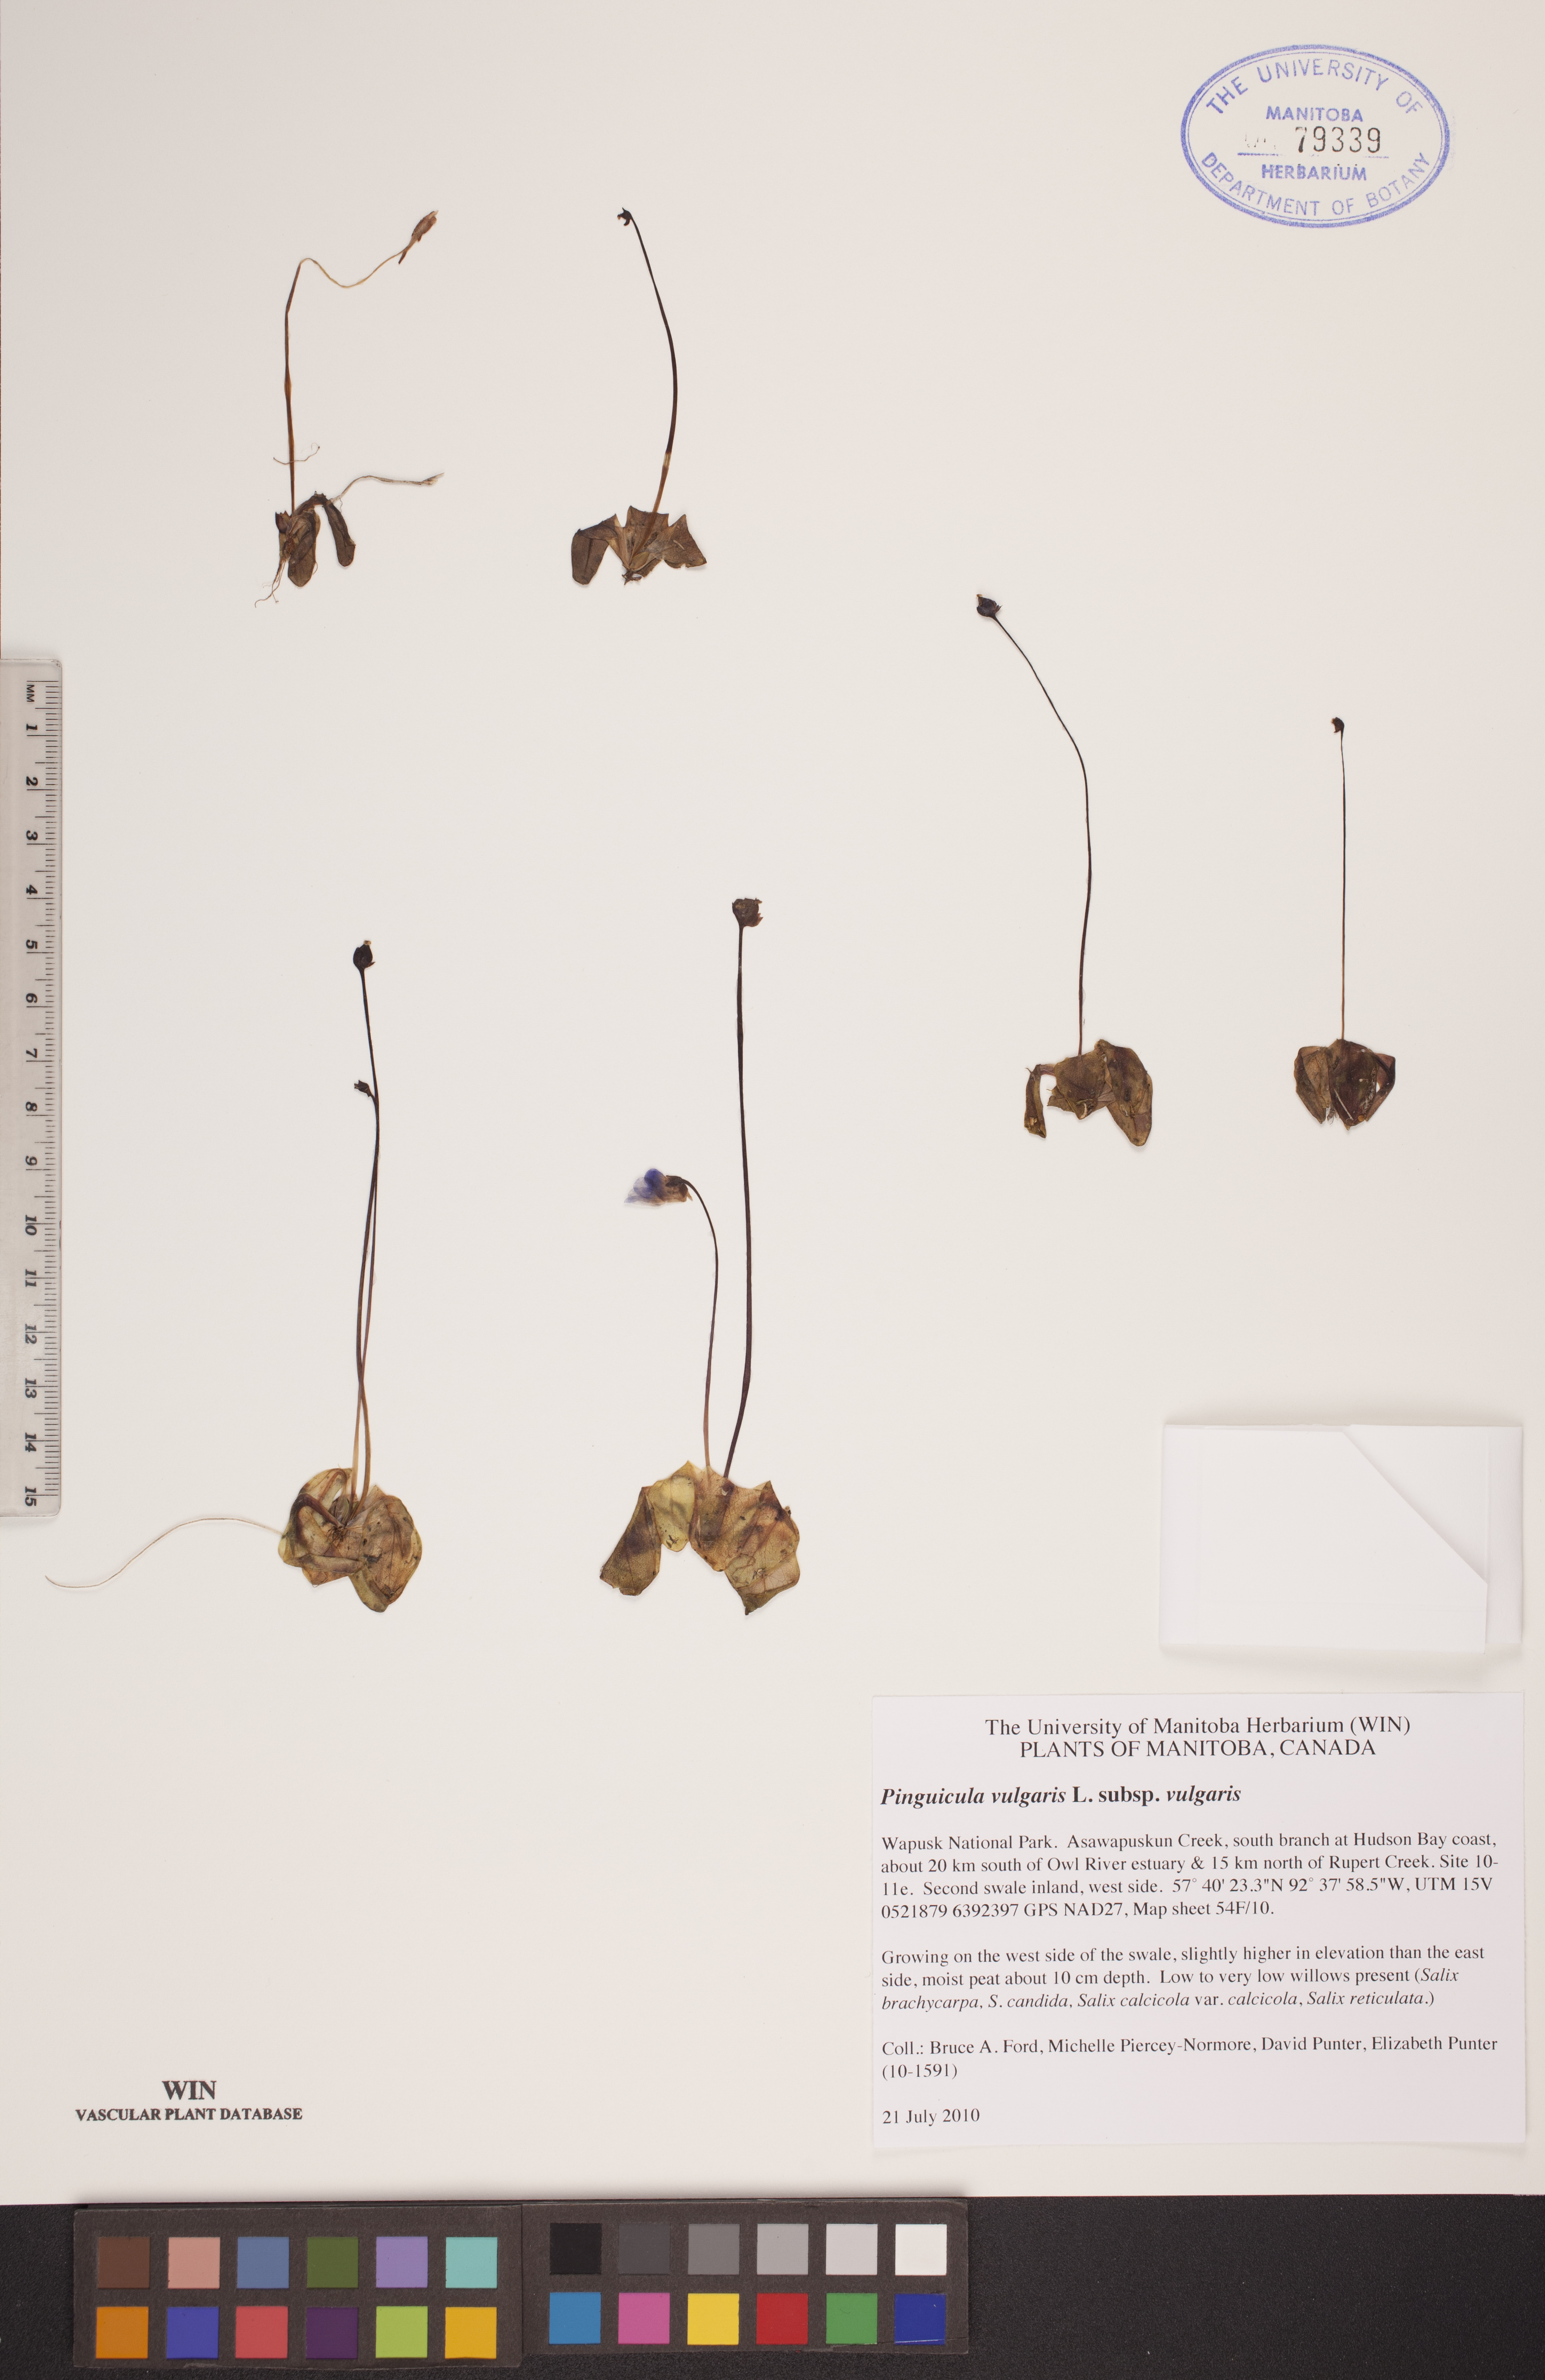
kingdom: Plantae
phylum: Tracheophyta
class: Magnoliopsida
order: Lamiales
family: Lentibulariaceae
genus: Pinguicula
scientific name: Pinguicula vulgaris
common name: Common butterwort
